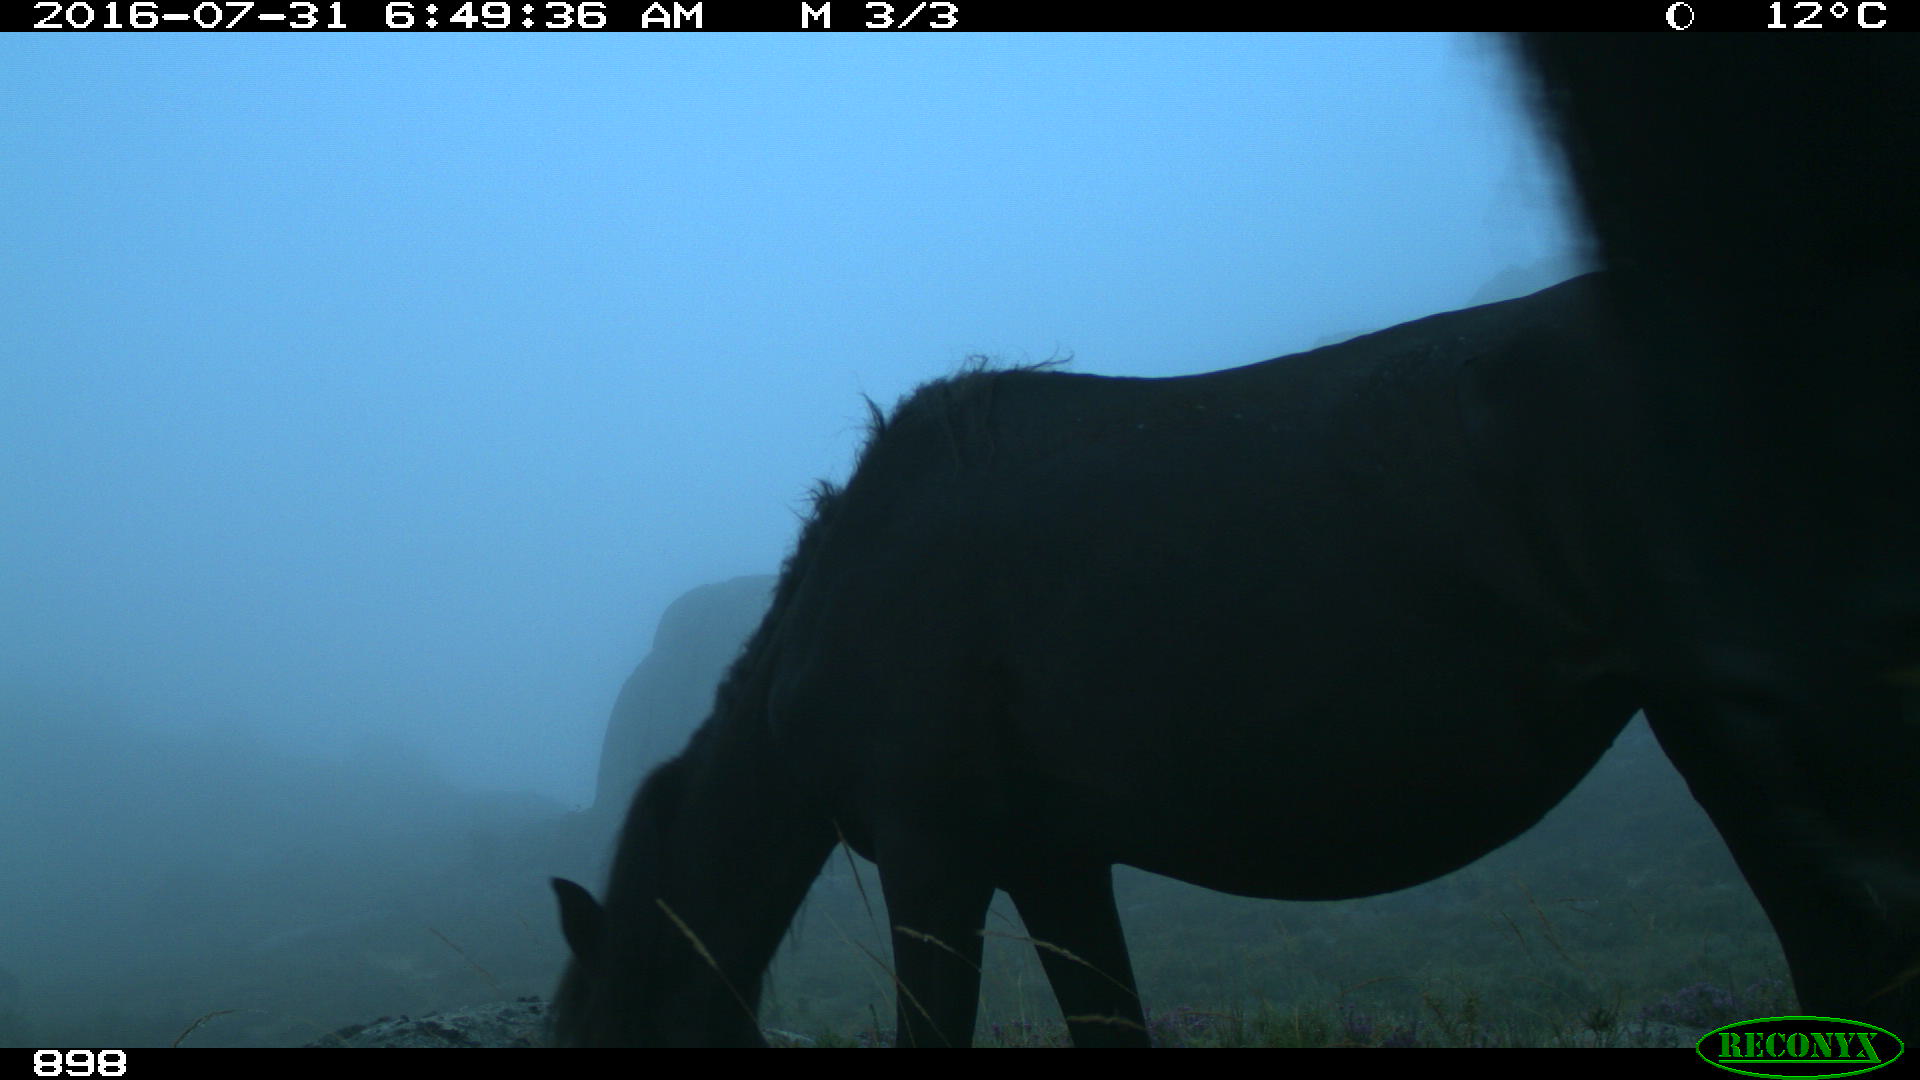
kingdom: Animalia
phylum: Chordata
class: Mammalia
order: Perissodactyla
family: Equidae
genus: Equus
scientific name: Equus caballus
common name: Horse
